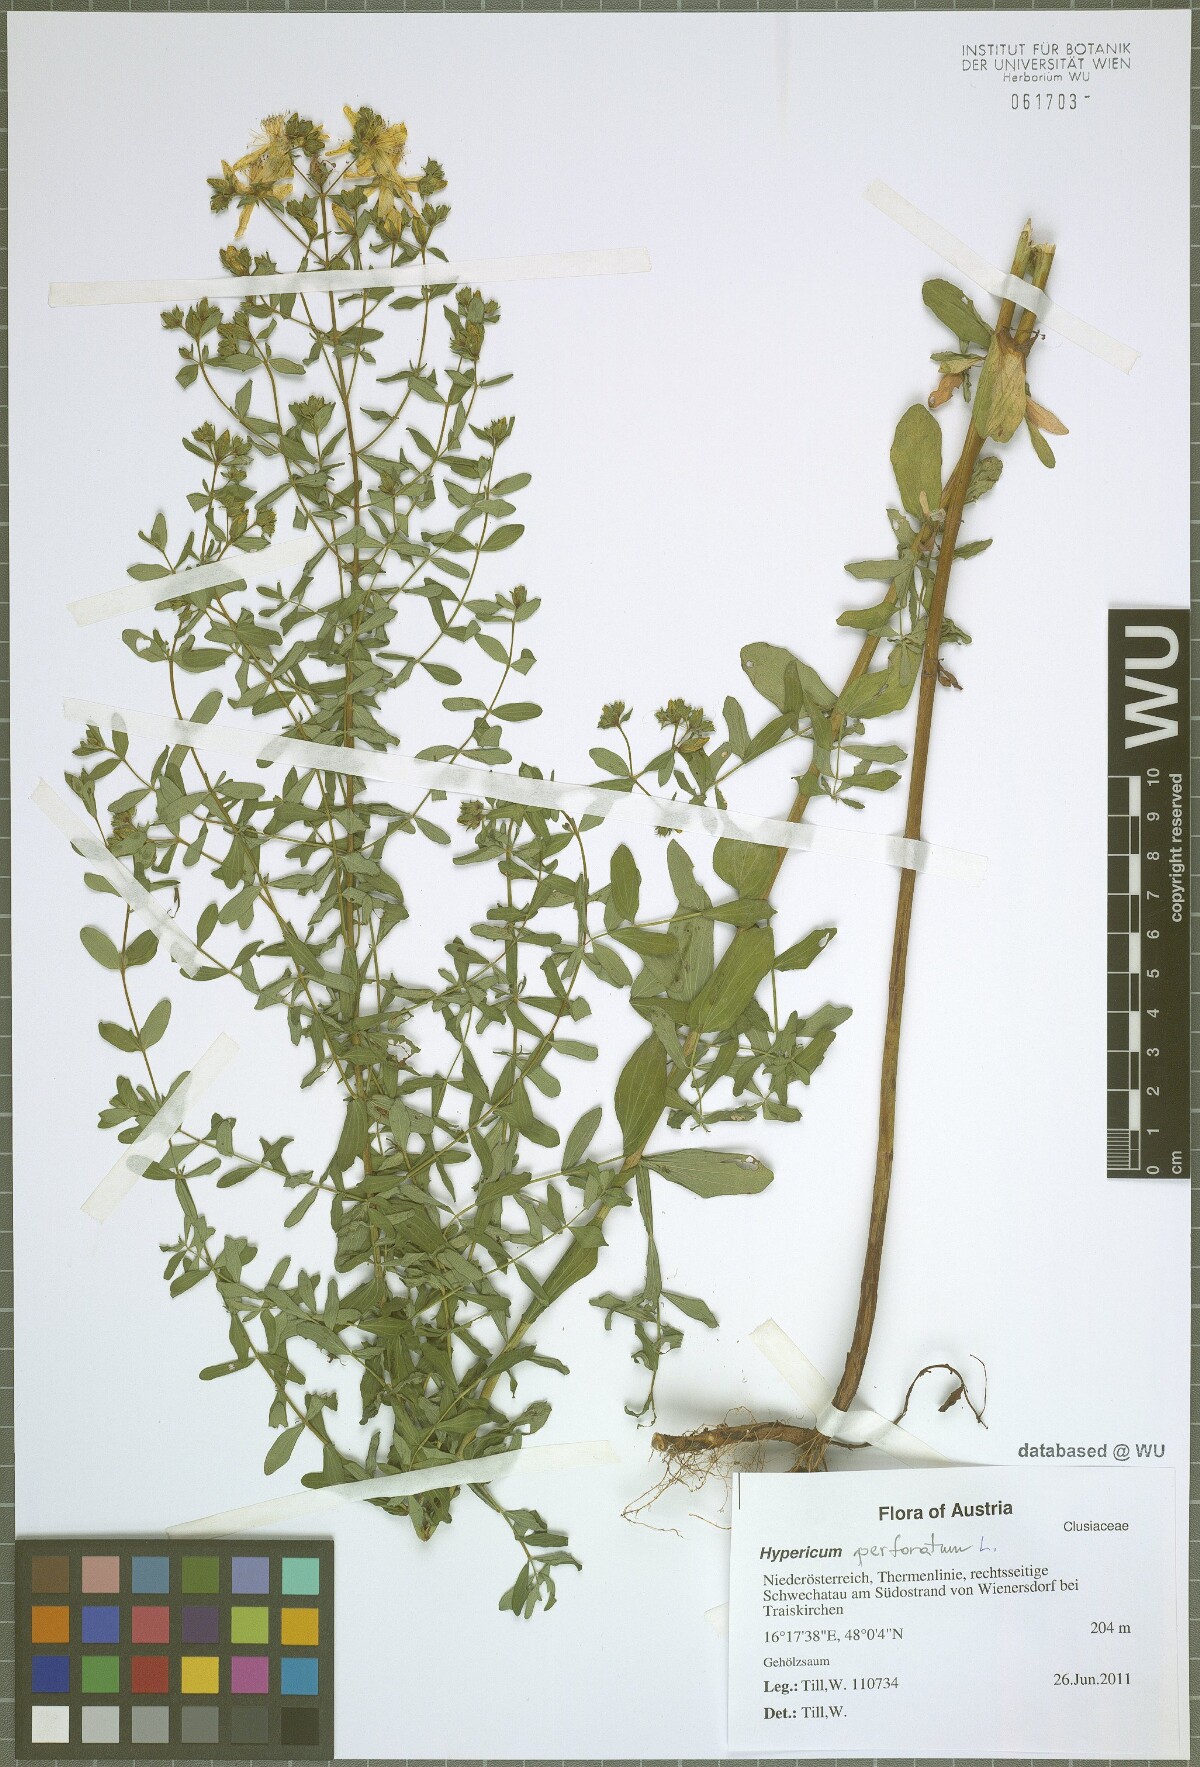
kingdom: Plantae
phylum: Tracheophyta
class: Magnoliopsida
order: Malpighiales
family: Hypericaceae
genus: Hypericum
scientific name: Hypericum perforatum
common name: Common st. johnswort
